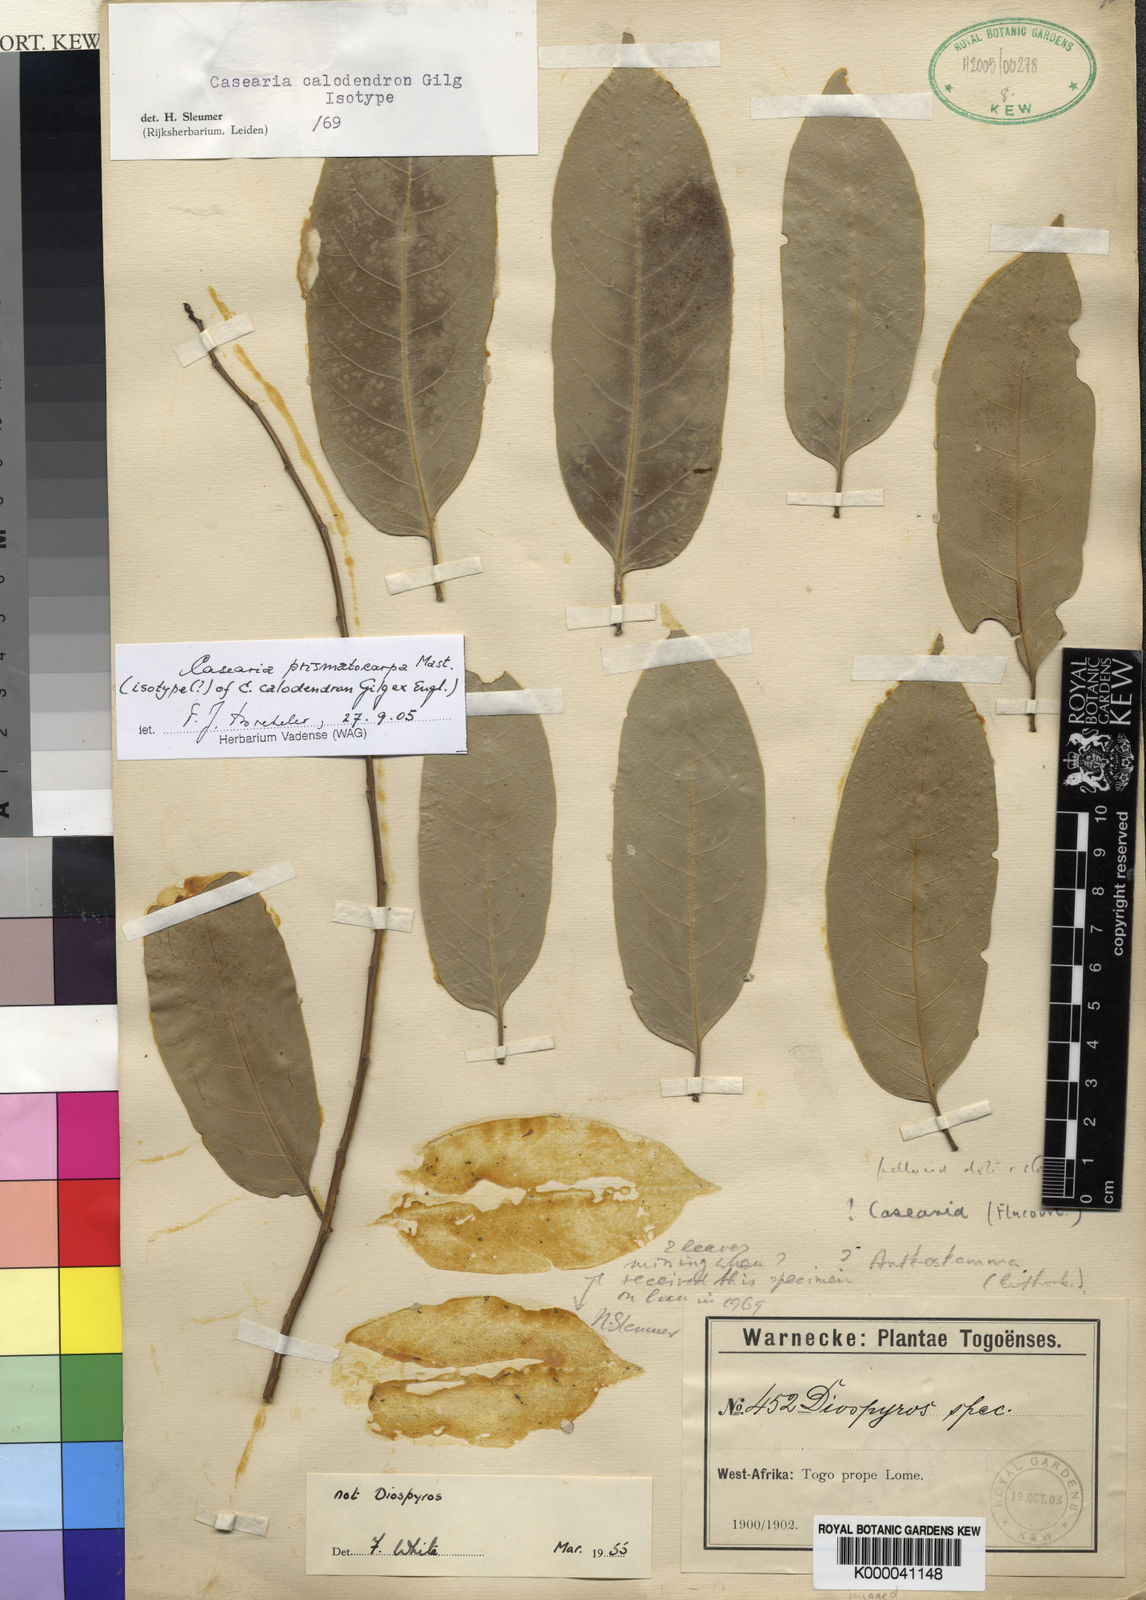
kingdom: Plantae
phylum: Tracheophyta
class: Magnoliopsida
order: Malpighiales
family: Salicaceae
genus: Casearia
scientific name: Casearia barteri
